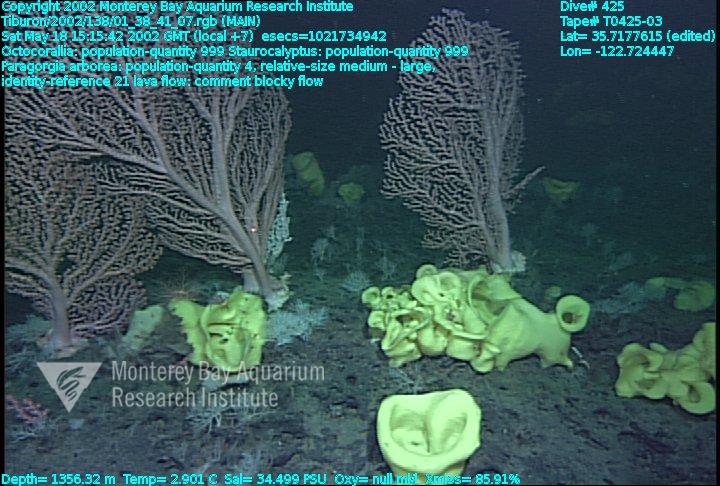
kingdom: Animalia
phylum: Porifera
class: Hexactinellida
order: Lyssacinosida
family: Rossellidae
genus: Staurocalyptus
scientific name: Staurocalyptus
